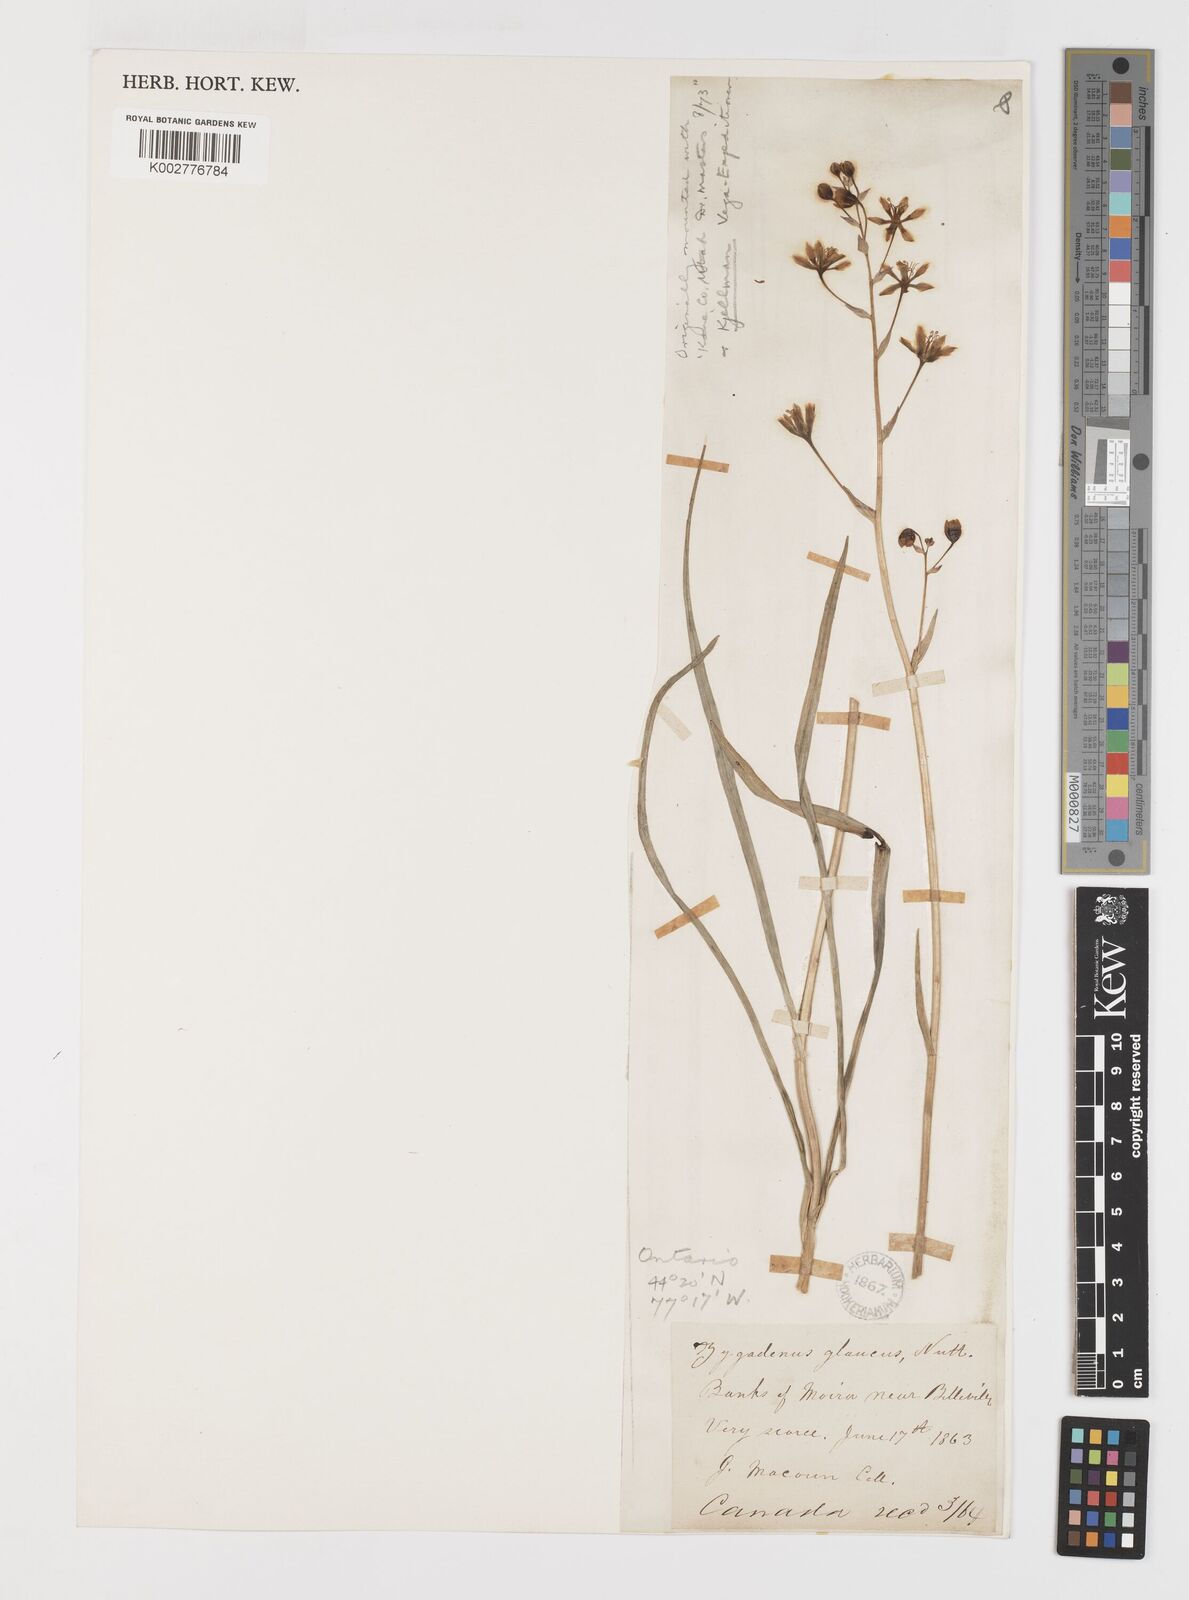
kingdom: Plantae
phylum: Tracheophyta
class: Liliopsida
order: Liliales
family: Melanthiaceae
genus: Anticlea
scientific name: Anticlea elegans
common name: Mountain death camas
